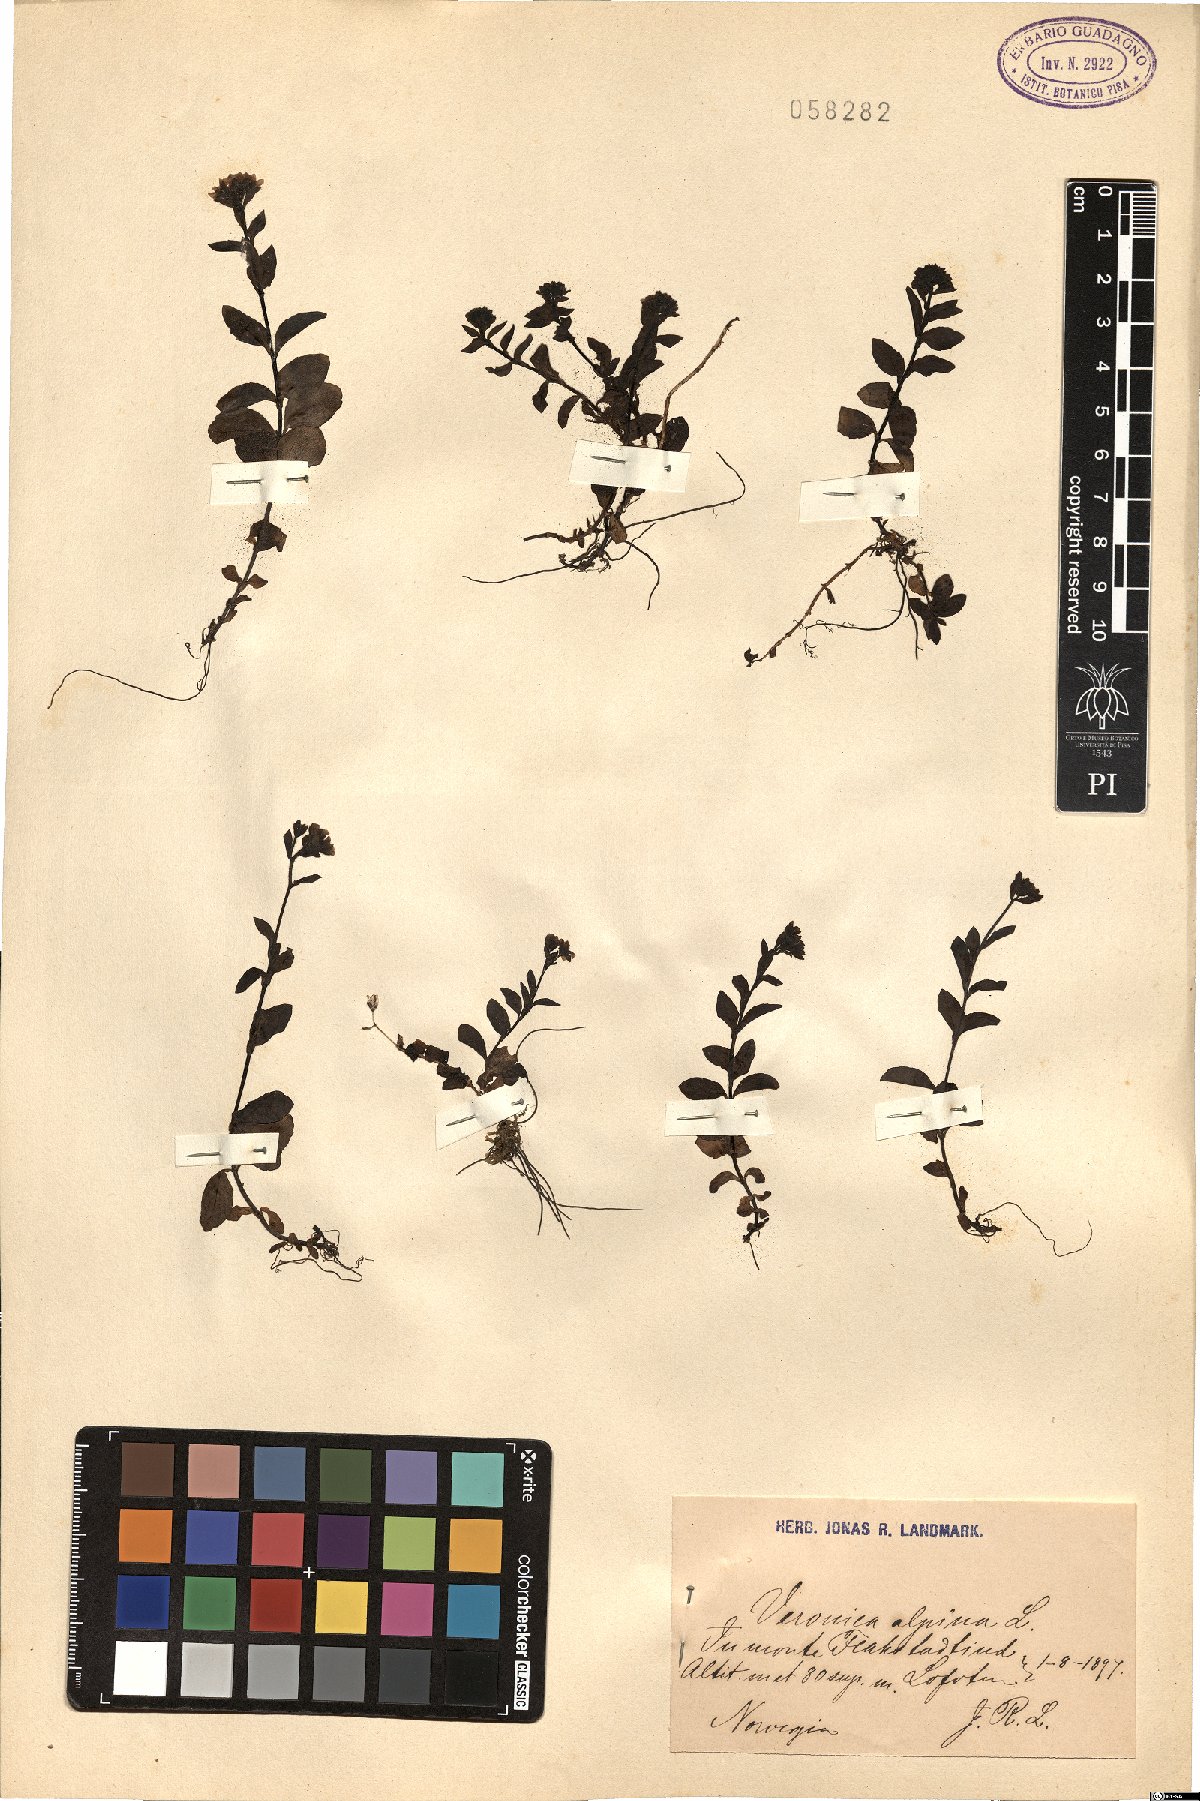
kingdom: Plantae
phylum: Tracheophyta
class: Magnoliopsida
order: Lamiales
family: Plantaginaceae
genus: Veronica
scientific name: Veronica alpina
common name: Alpine speedwell
